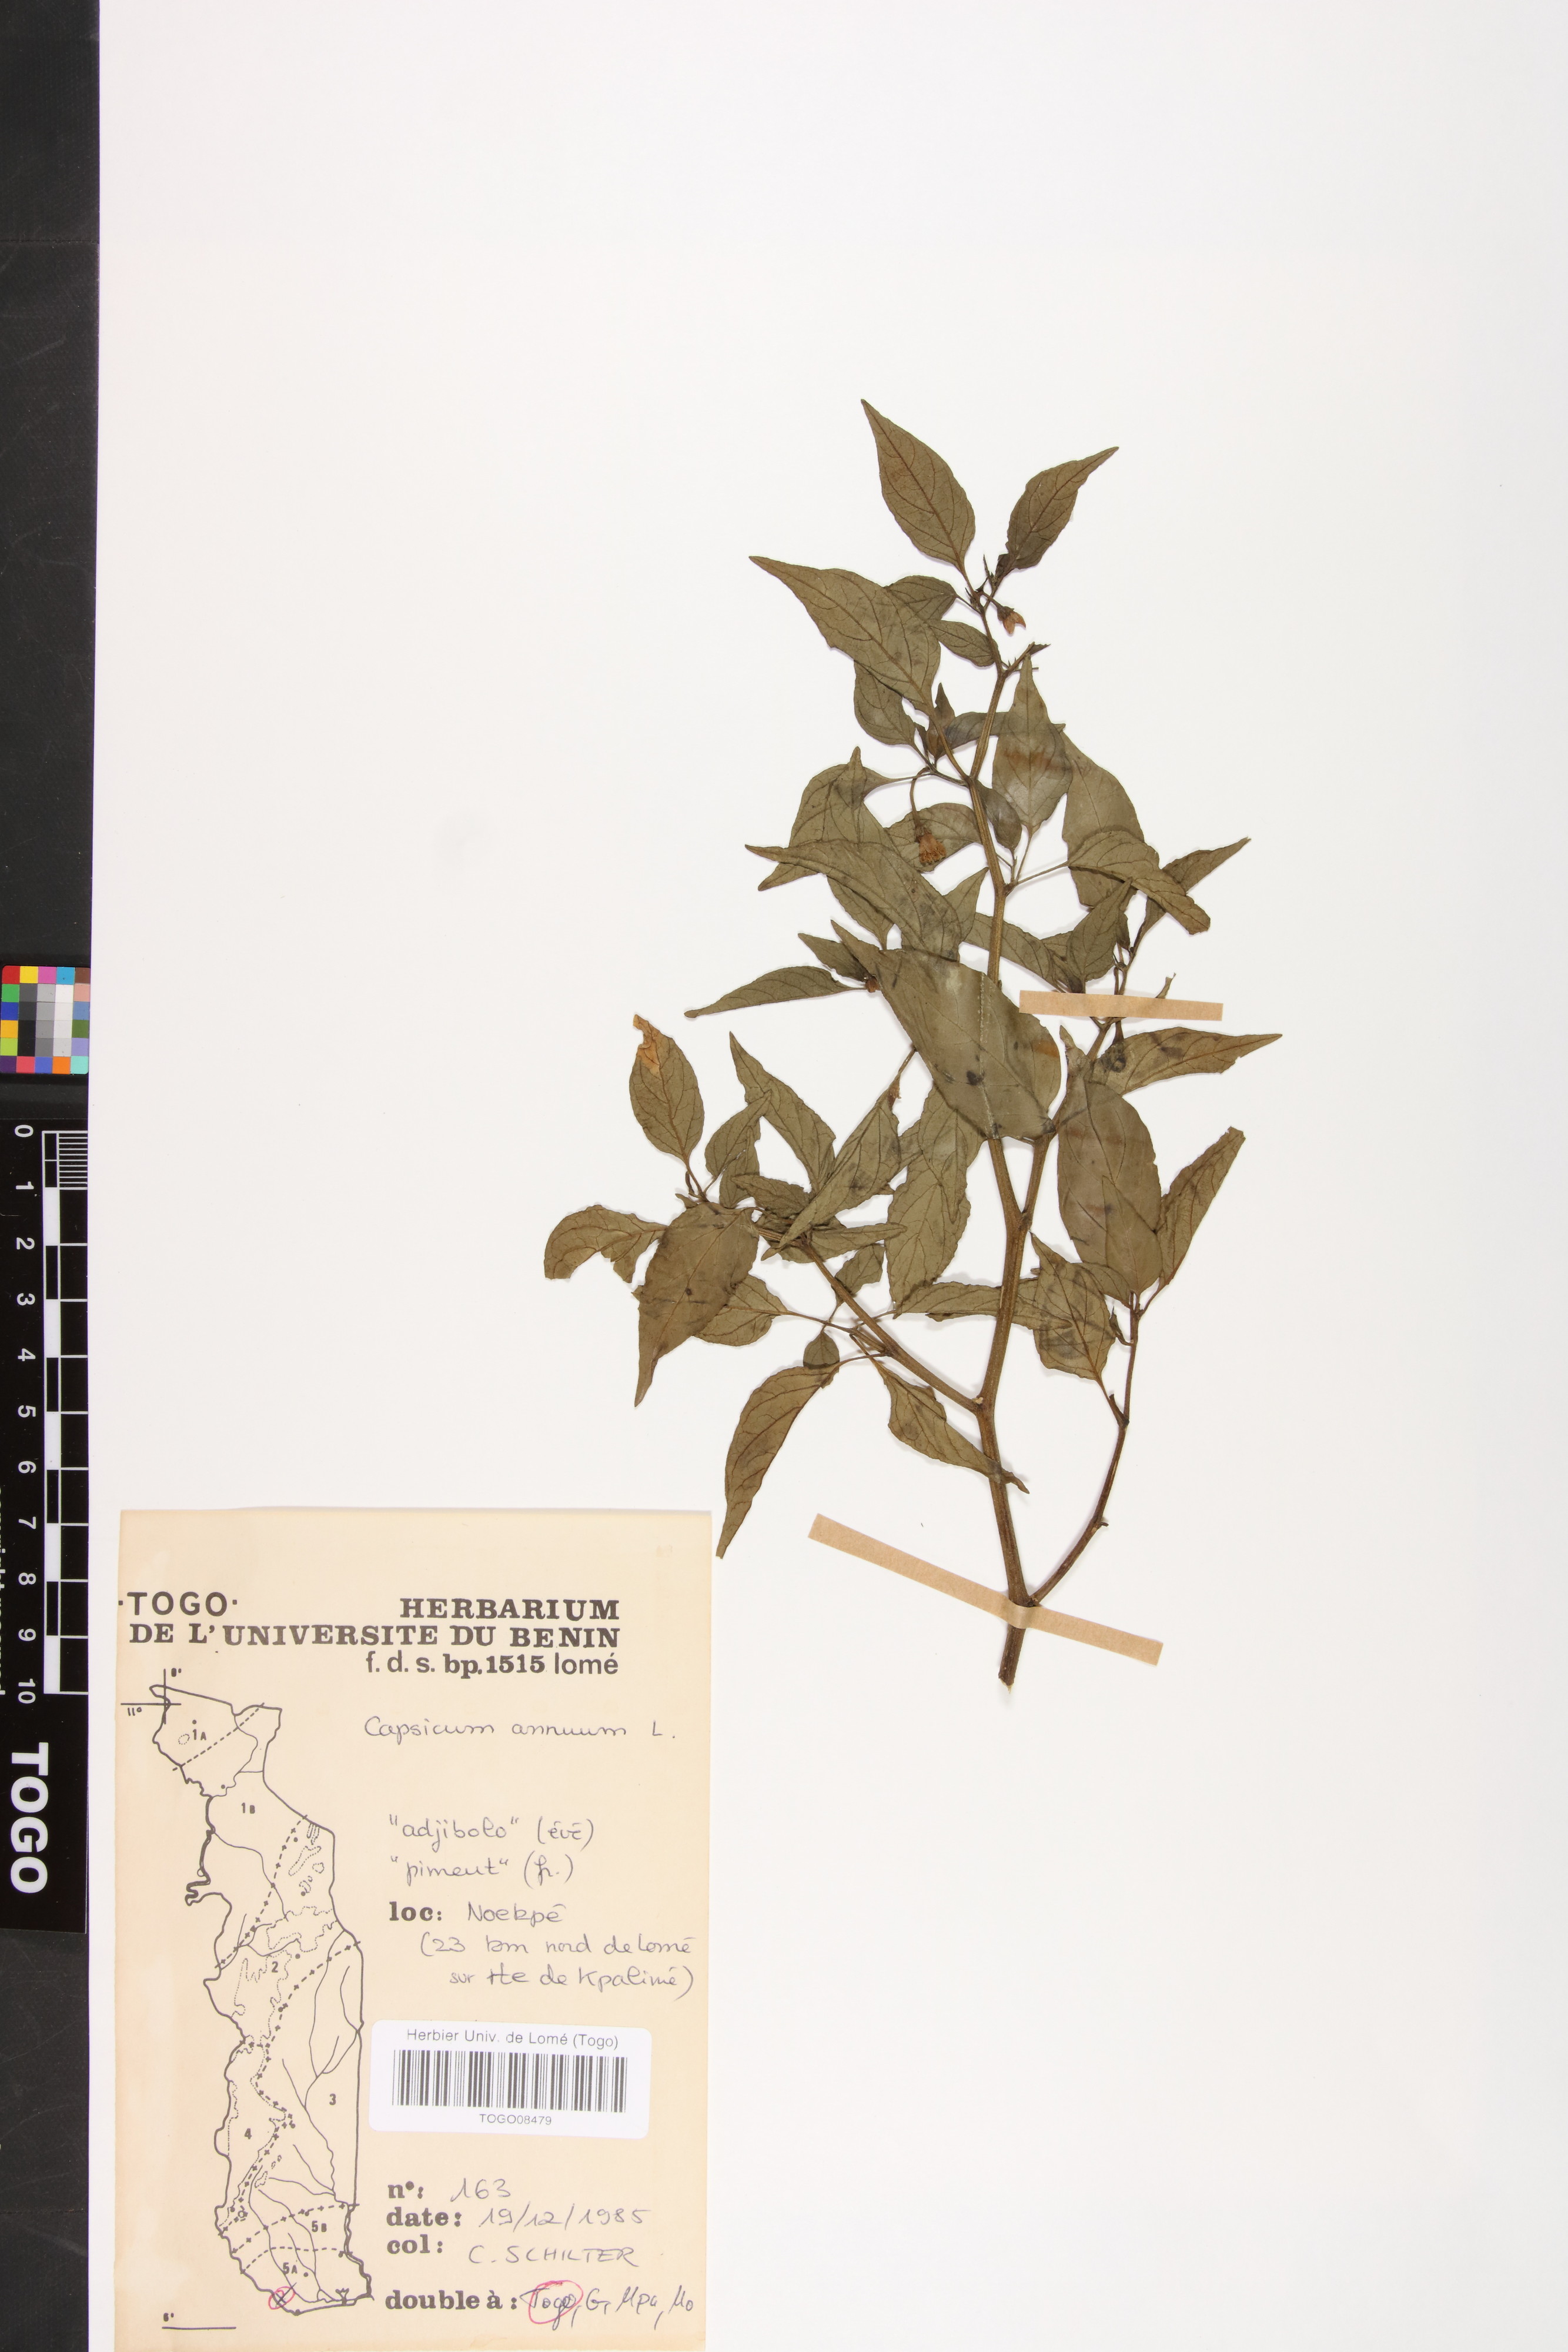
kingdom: Plantae
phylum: Tracheophyta
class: Magnoliopsida
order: Solanales
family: Solanaceae
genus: Capsicum
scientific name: Capsicum annuum
